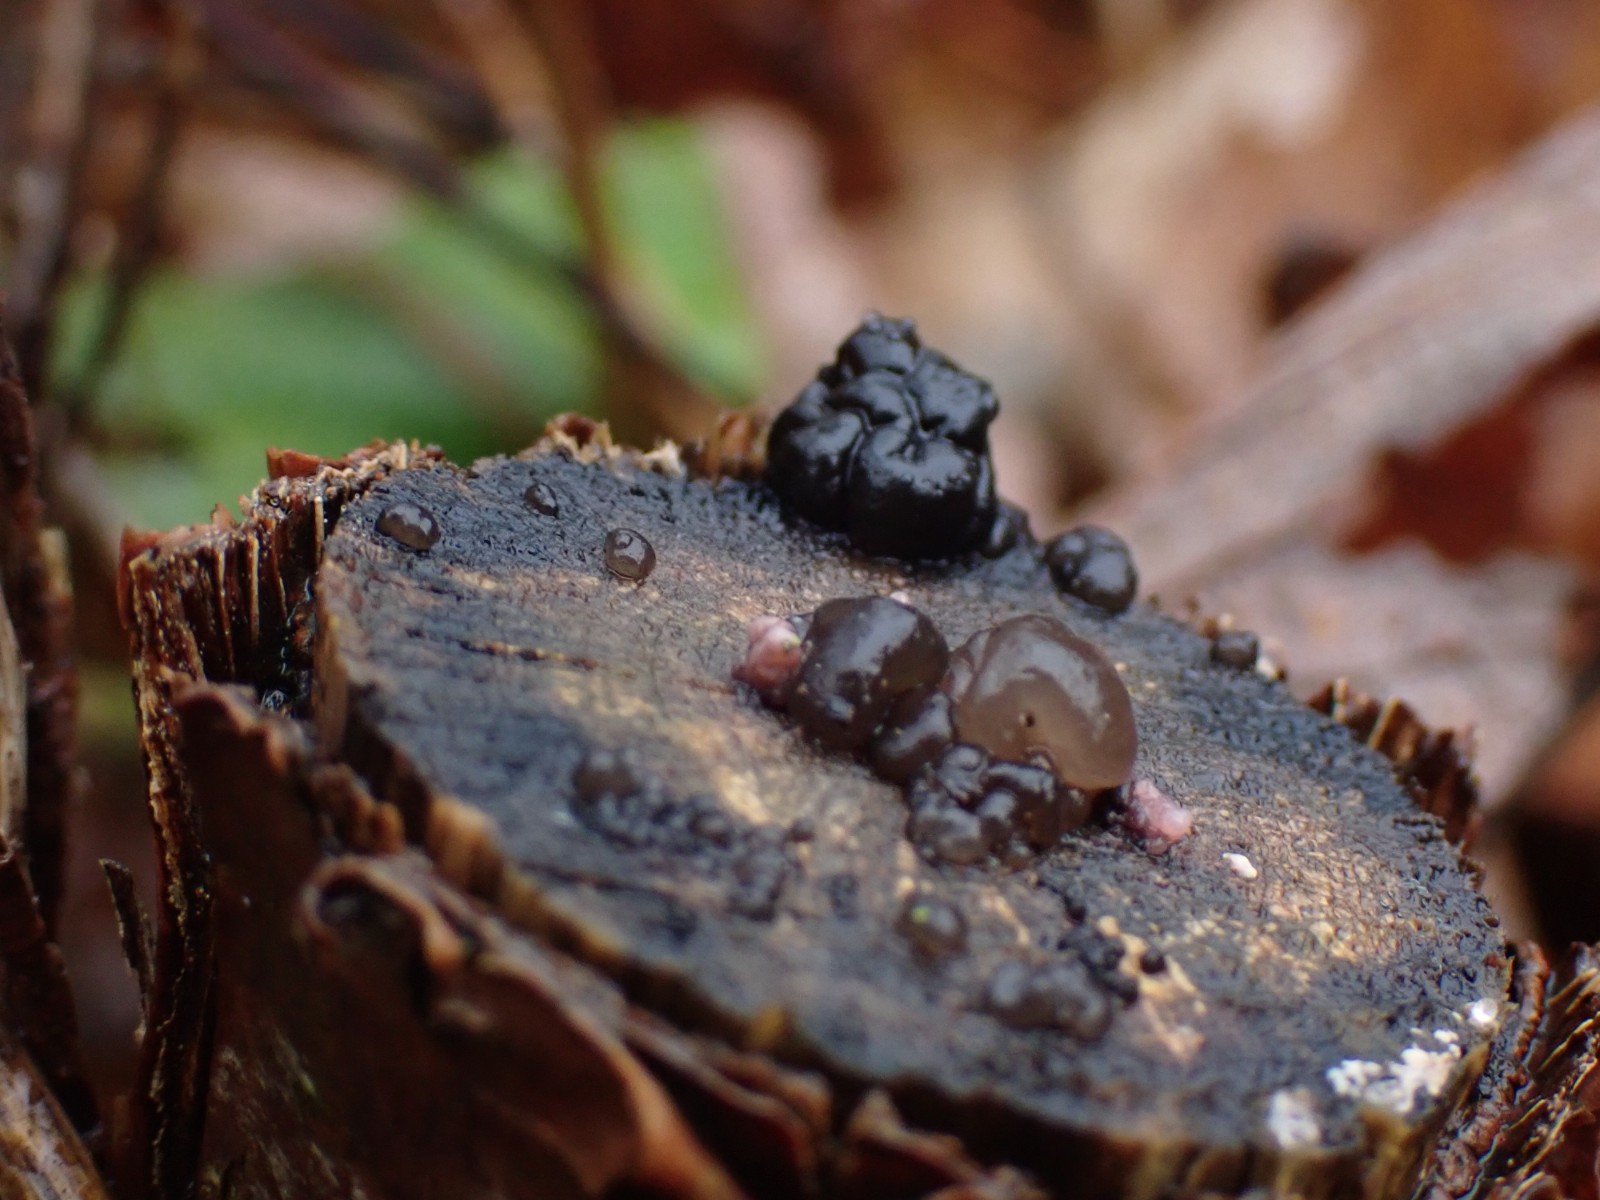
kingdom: Fungi
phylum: Basidiomycota
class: Agaricomycetes
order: Auriculariales
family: Auriculariaceae
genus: Exidia
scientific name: Exidia nigricans
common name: almindelig bævretop
